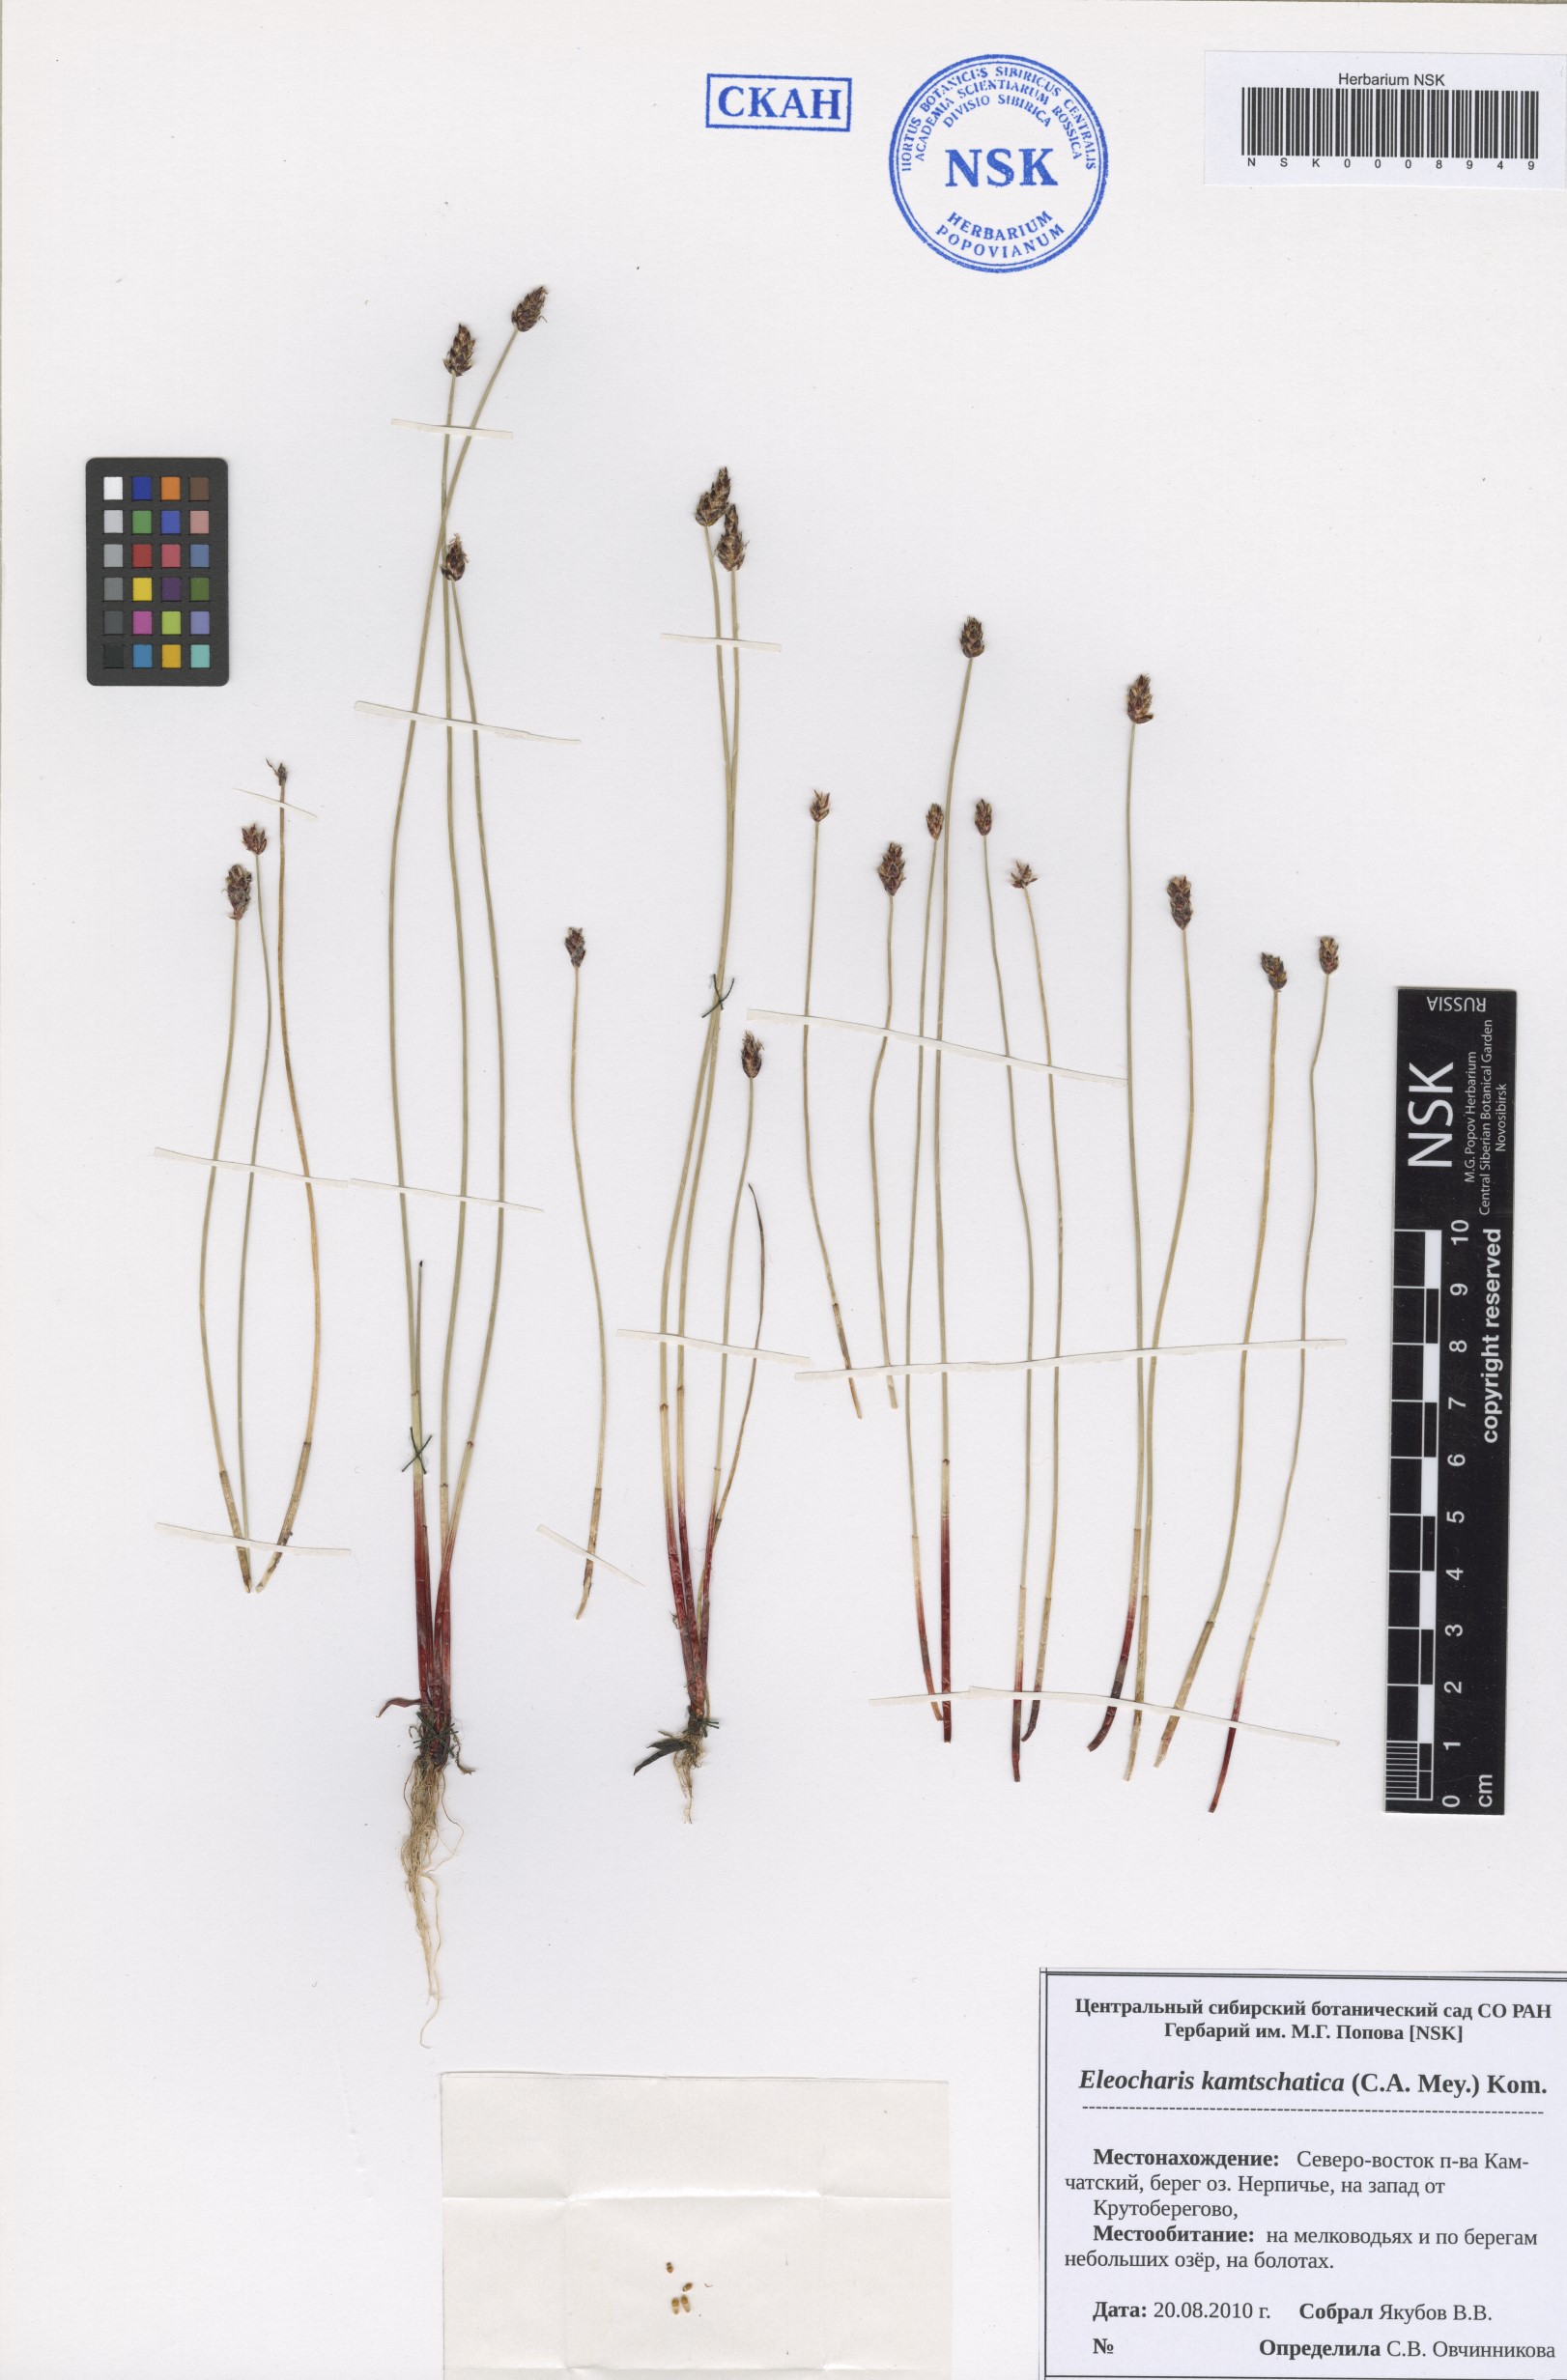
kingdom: Plantae
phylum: Tracheophyta
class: Liliopsida
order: Poales
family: Cyperaceae
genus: Eleocharis
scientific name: Eleocharis kamtschatica
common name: Kamchatka spikerush
